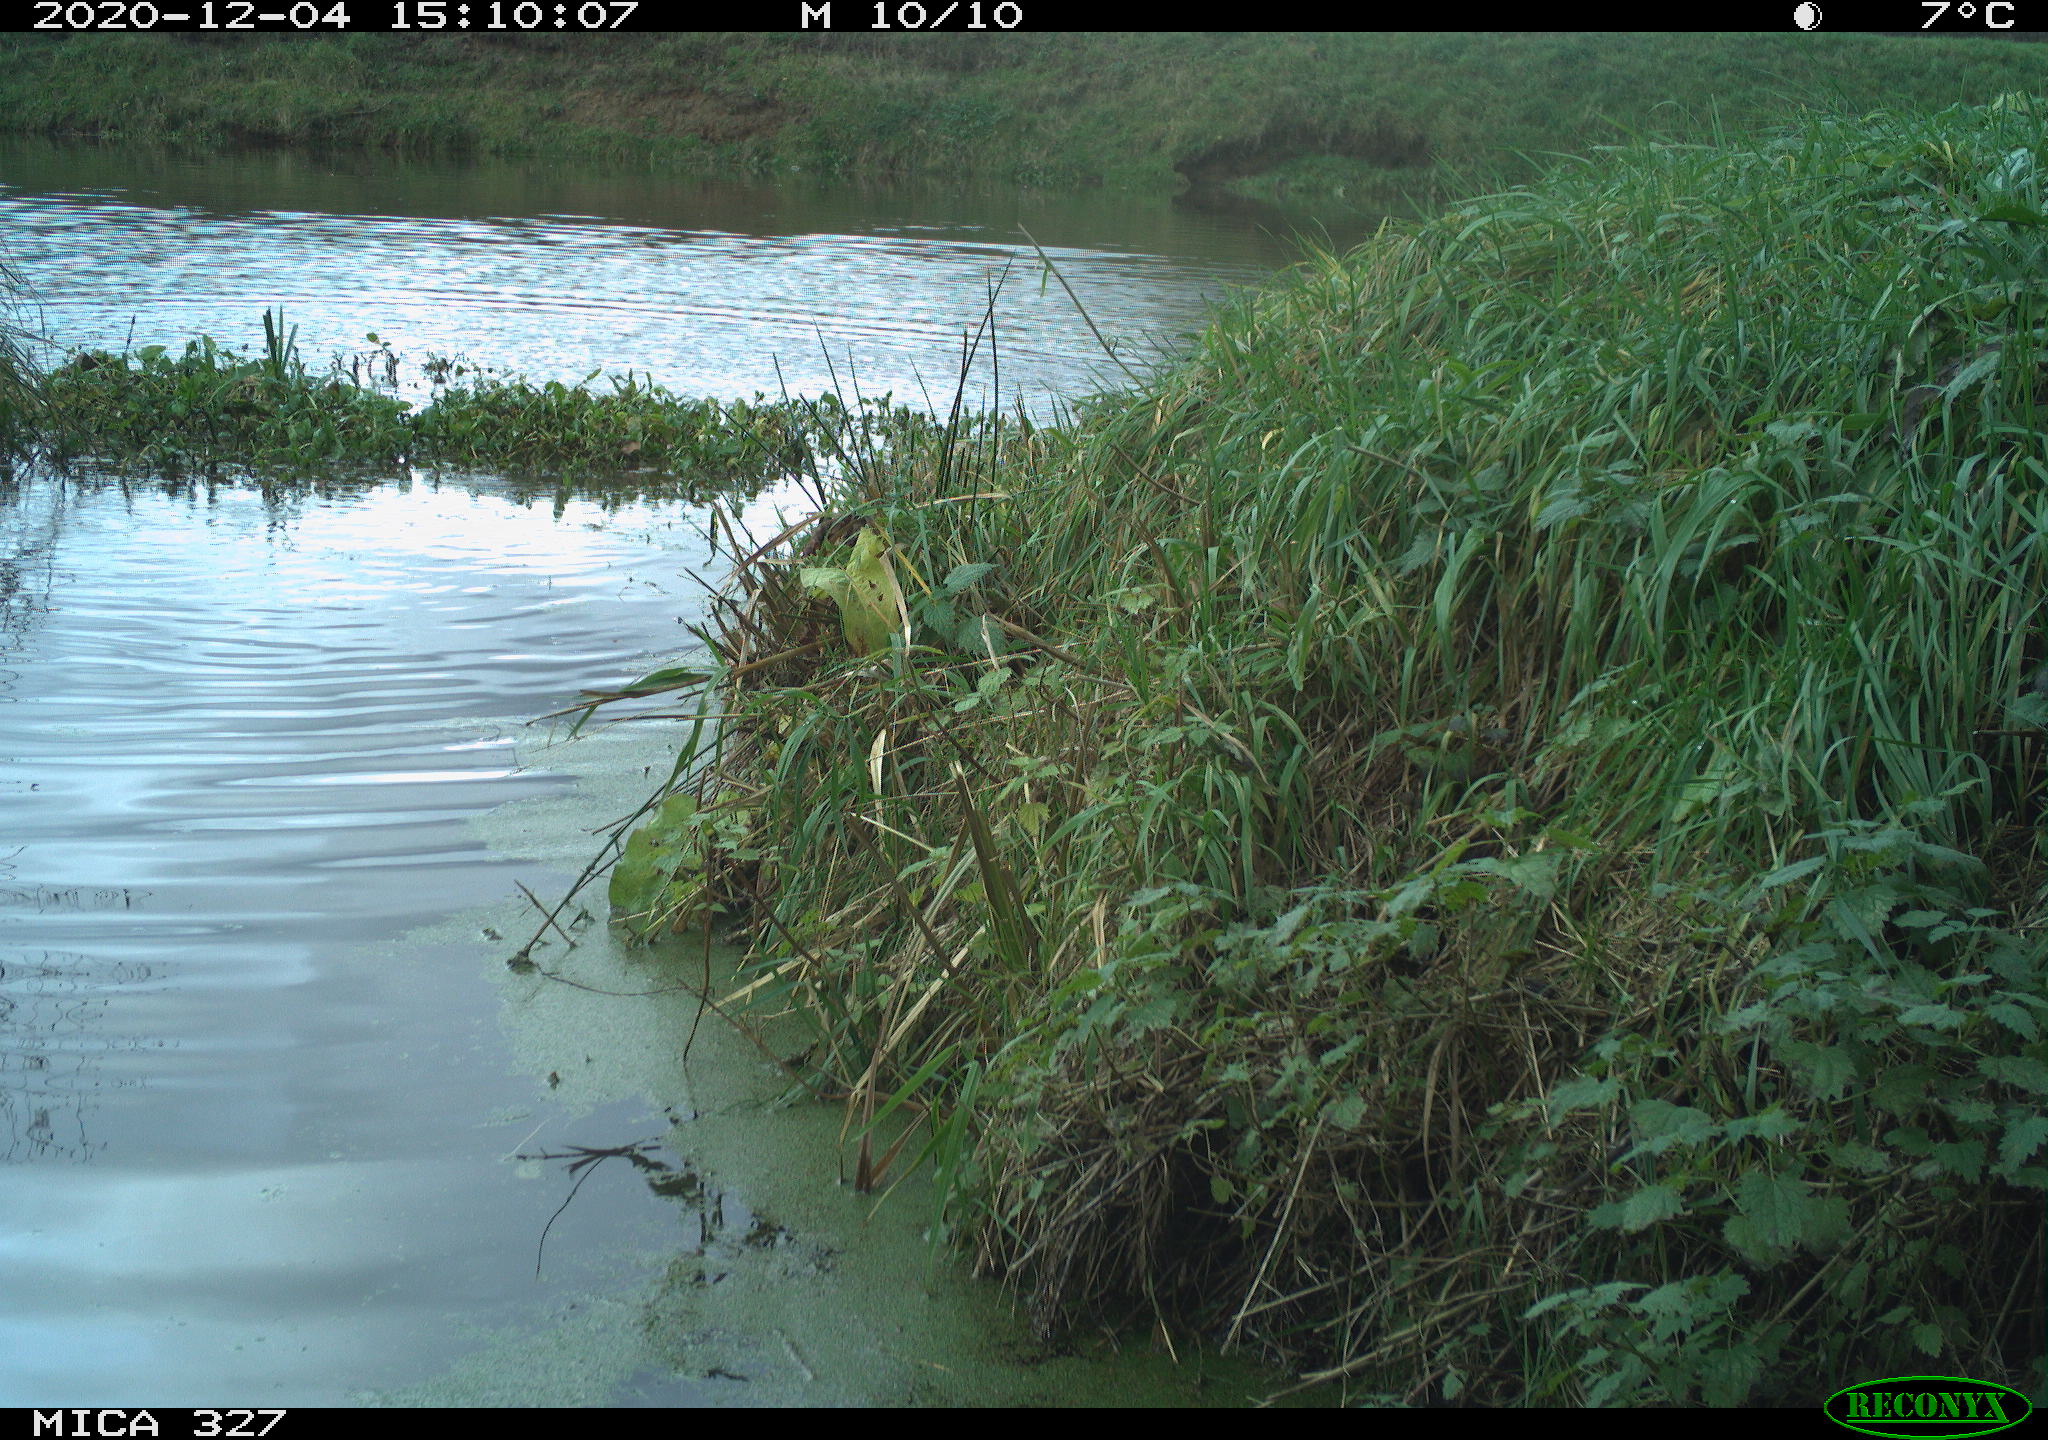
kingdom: Animalia
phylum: Chordata
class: Mammalia
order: Carnivora
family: Canidae
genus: Canis
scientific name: Canis lupus
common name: Gray wolf
